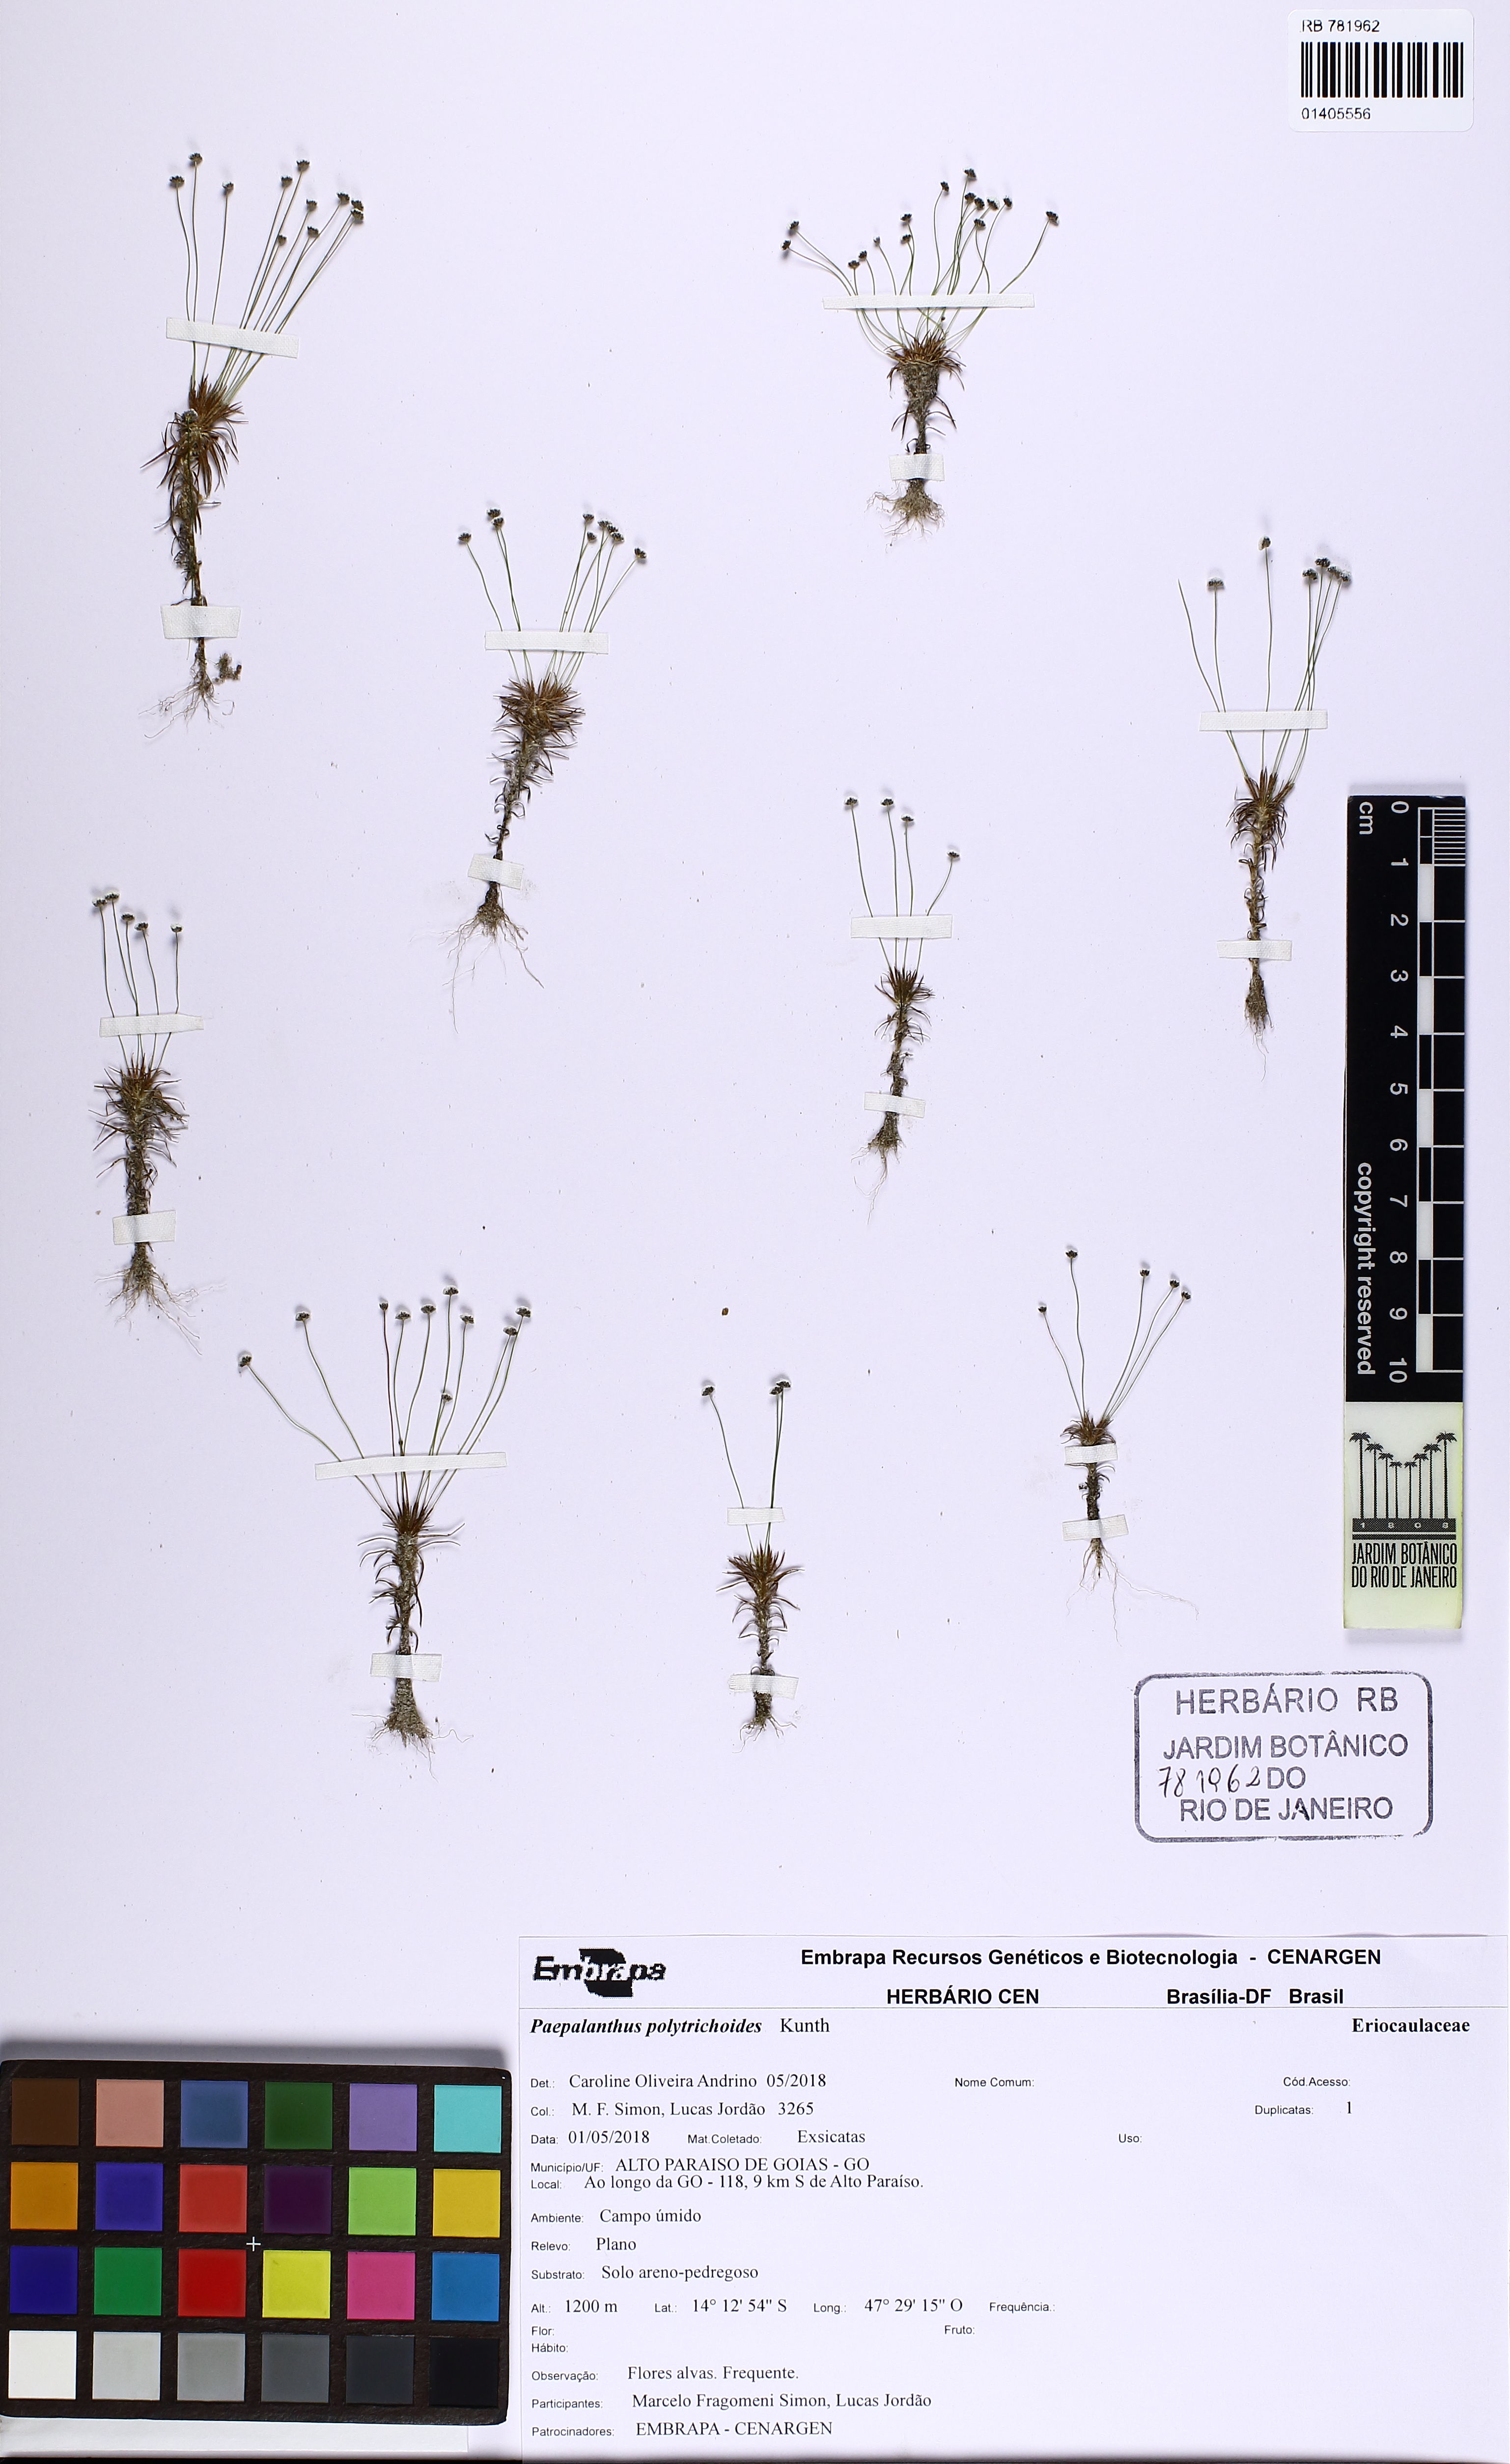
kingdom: Plantae
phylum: Tracheophyta
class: Liliopsida
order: Poales
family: Eriocaulaceae
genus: Paepalanthus
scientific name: Paepalanthus polytrichoides
